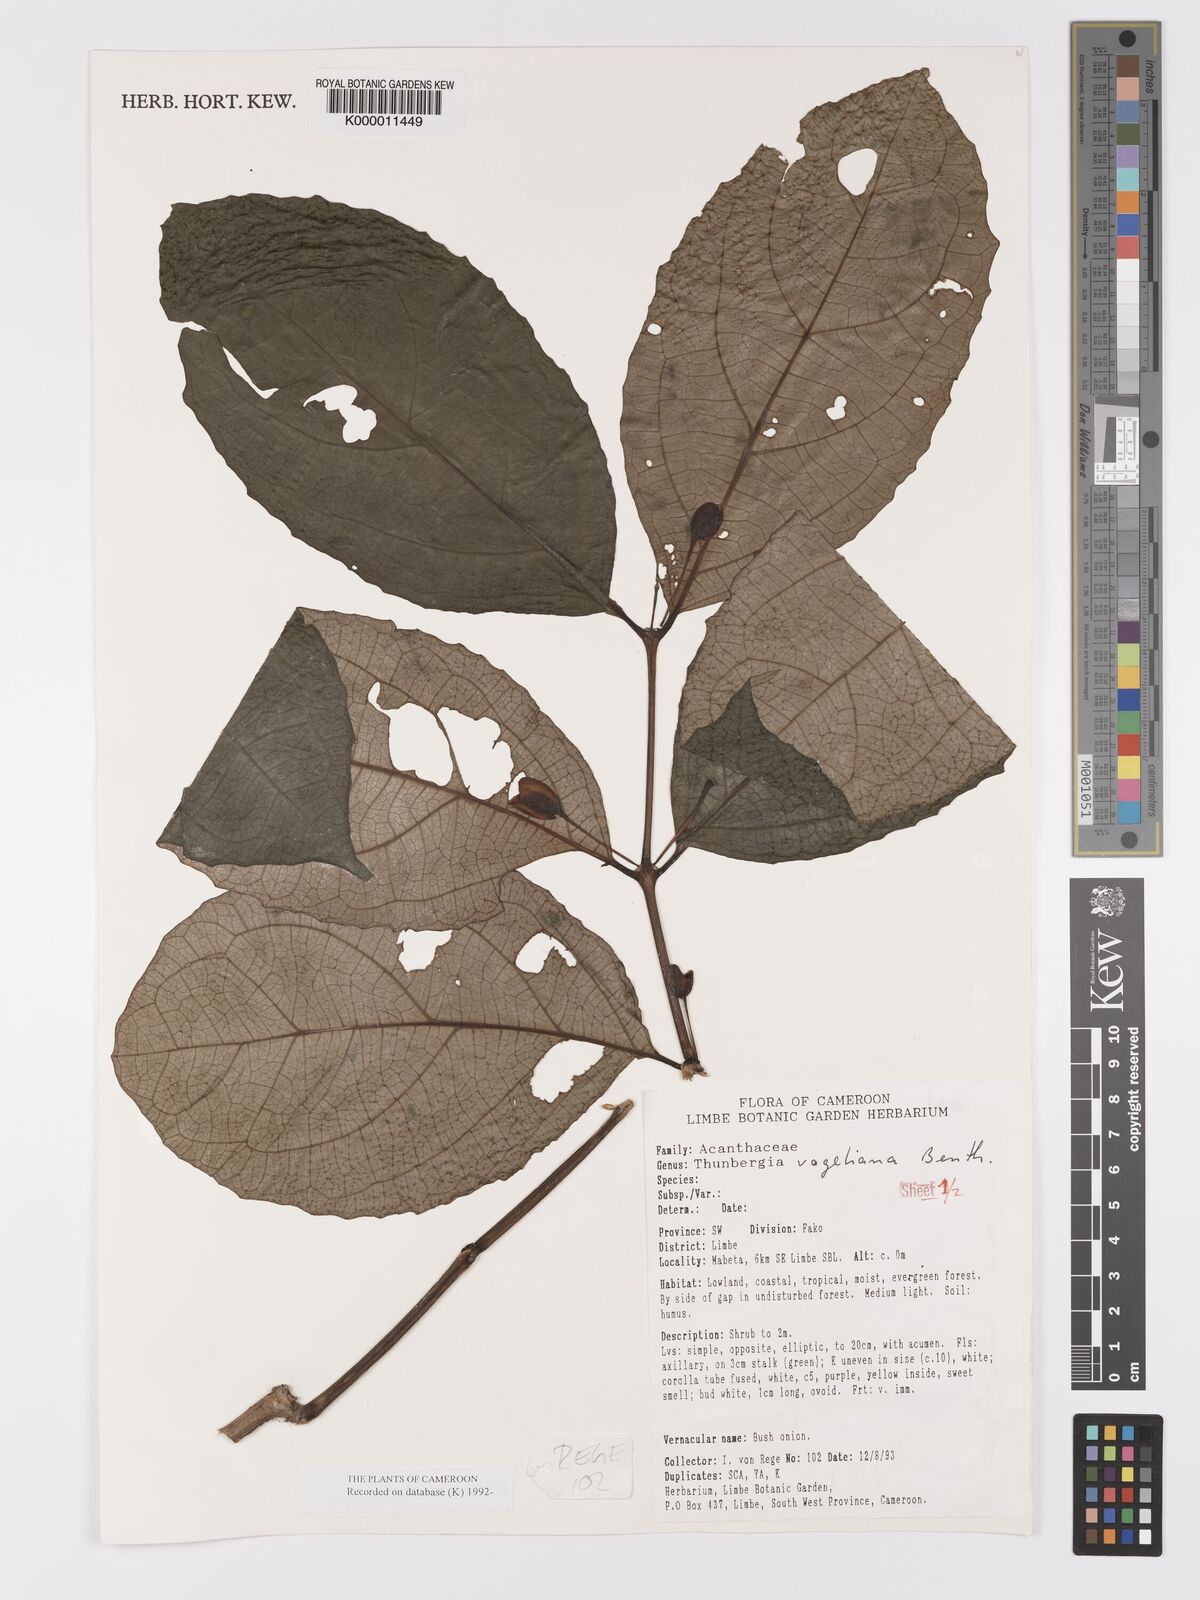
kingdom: Plantae
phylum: Tracheophyta
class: Magnoliopsida
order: Lamiales
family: Acanthaceae
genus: Thunbergia
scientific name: Thunbergia vogeliana
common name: Acanthaceae
